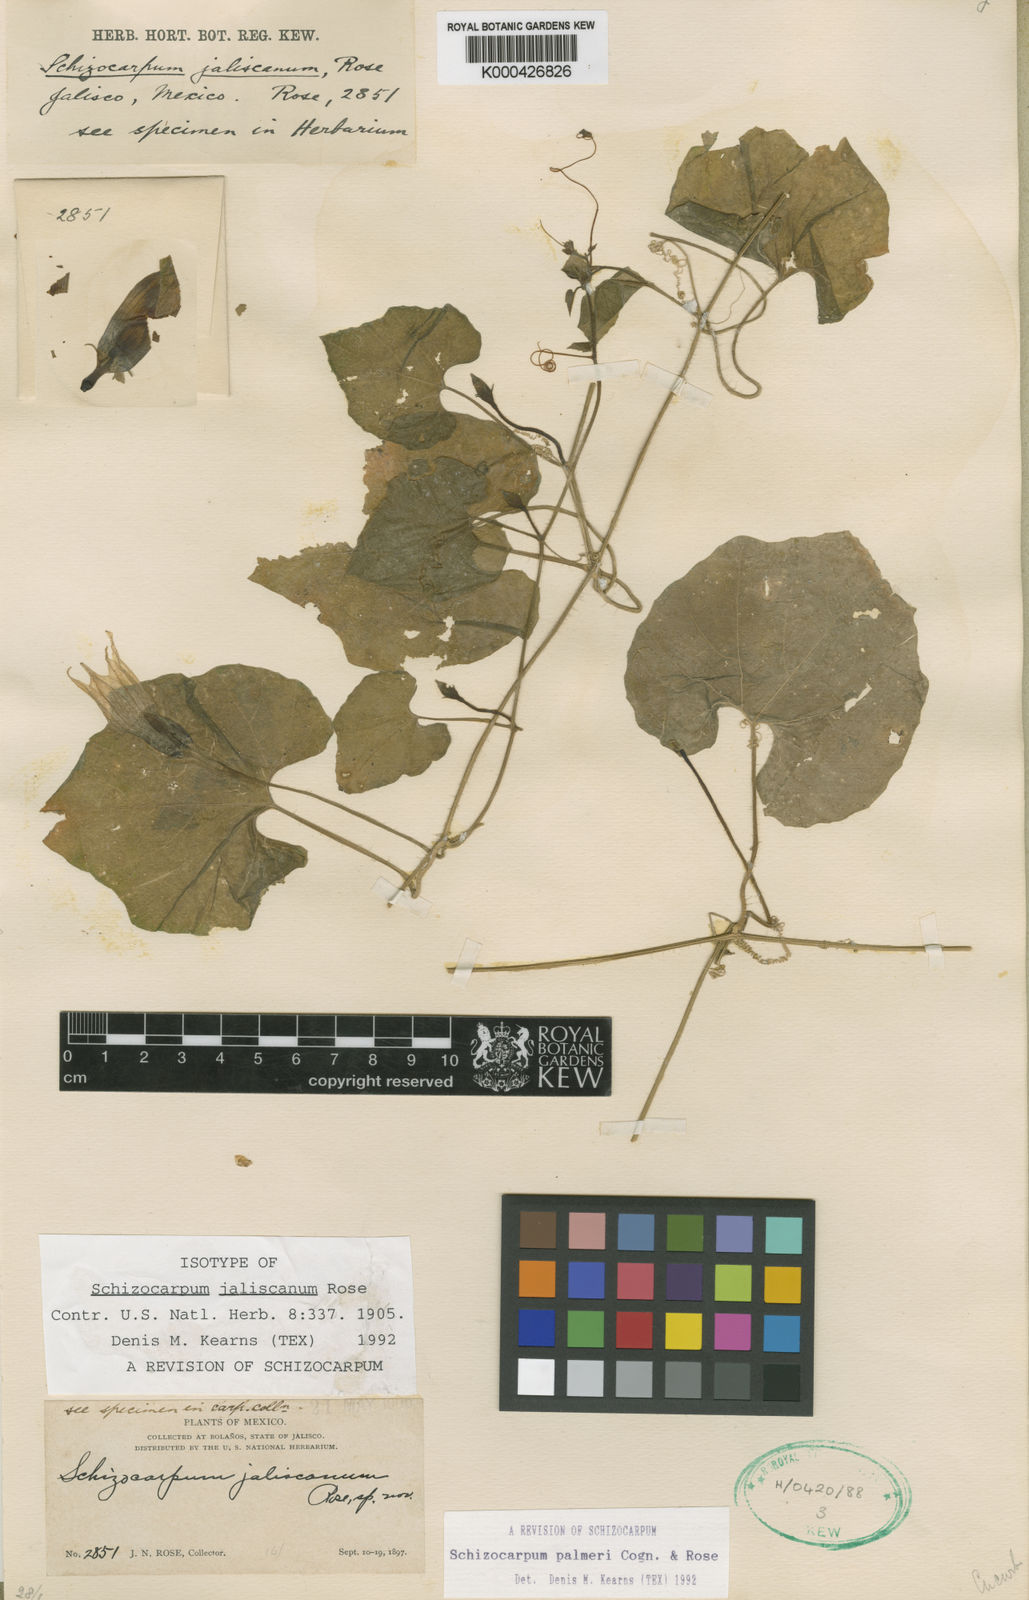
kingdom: Plantae
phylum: Tracheophyta
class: Magnoliopsida
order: Cucurbitales
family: Cucurbitaceae
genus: Schizocarpum
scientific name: Schizocarpum palmeri
